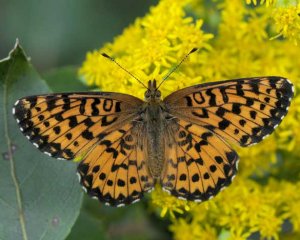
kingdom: Animalia
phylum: Arthropoda
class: Insecta
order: Lepidoptera
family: Nymphalidae
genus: Boloria
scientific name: Boloria chariclea
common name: Arctic Fritillary
